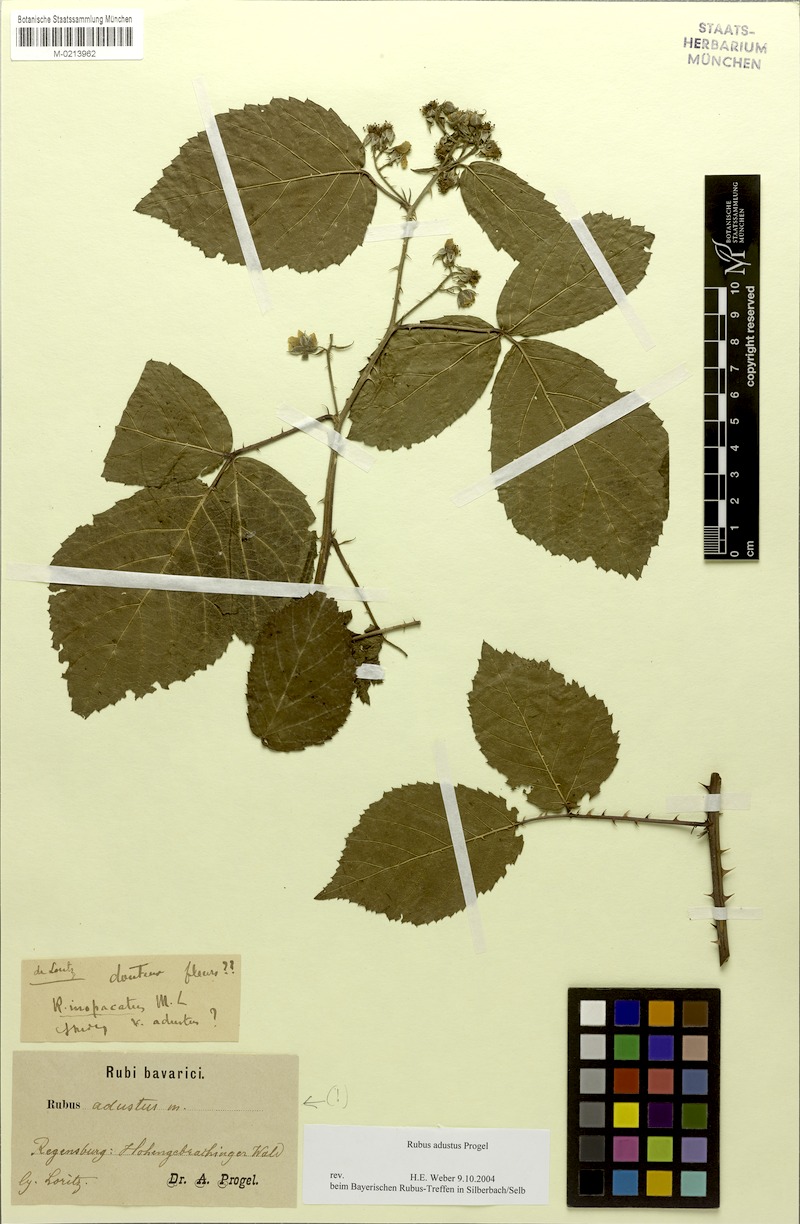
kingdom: Plantae
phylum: Tracheophyta
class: Magnoliopsida
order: Rosales
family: Rosaceae
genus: Rubus
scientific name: Rubus epipsilos
